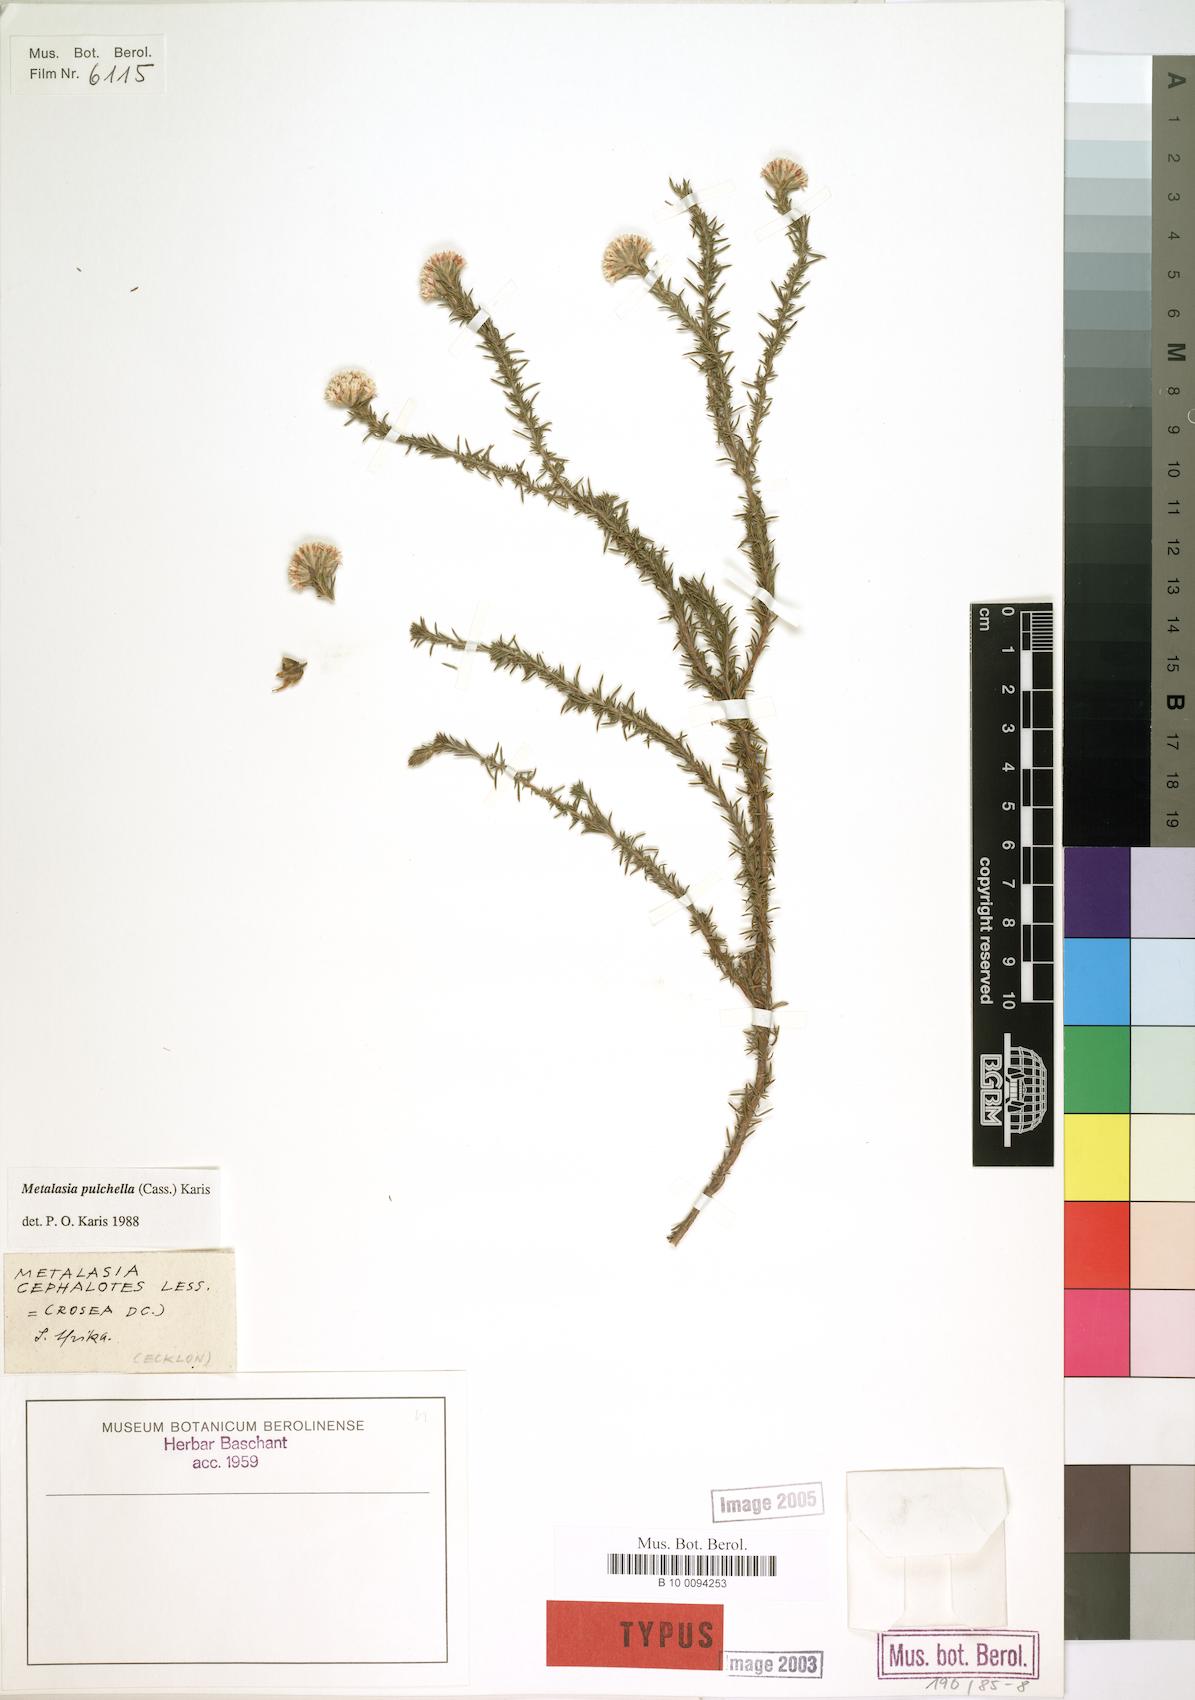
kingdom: Plantae
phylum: Tracheophyta
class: Magnoliopsida
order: Asterales
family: Asteraceae
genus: Metalasia
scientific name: Metalasia pulchella
